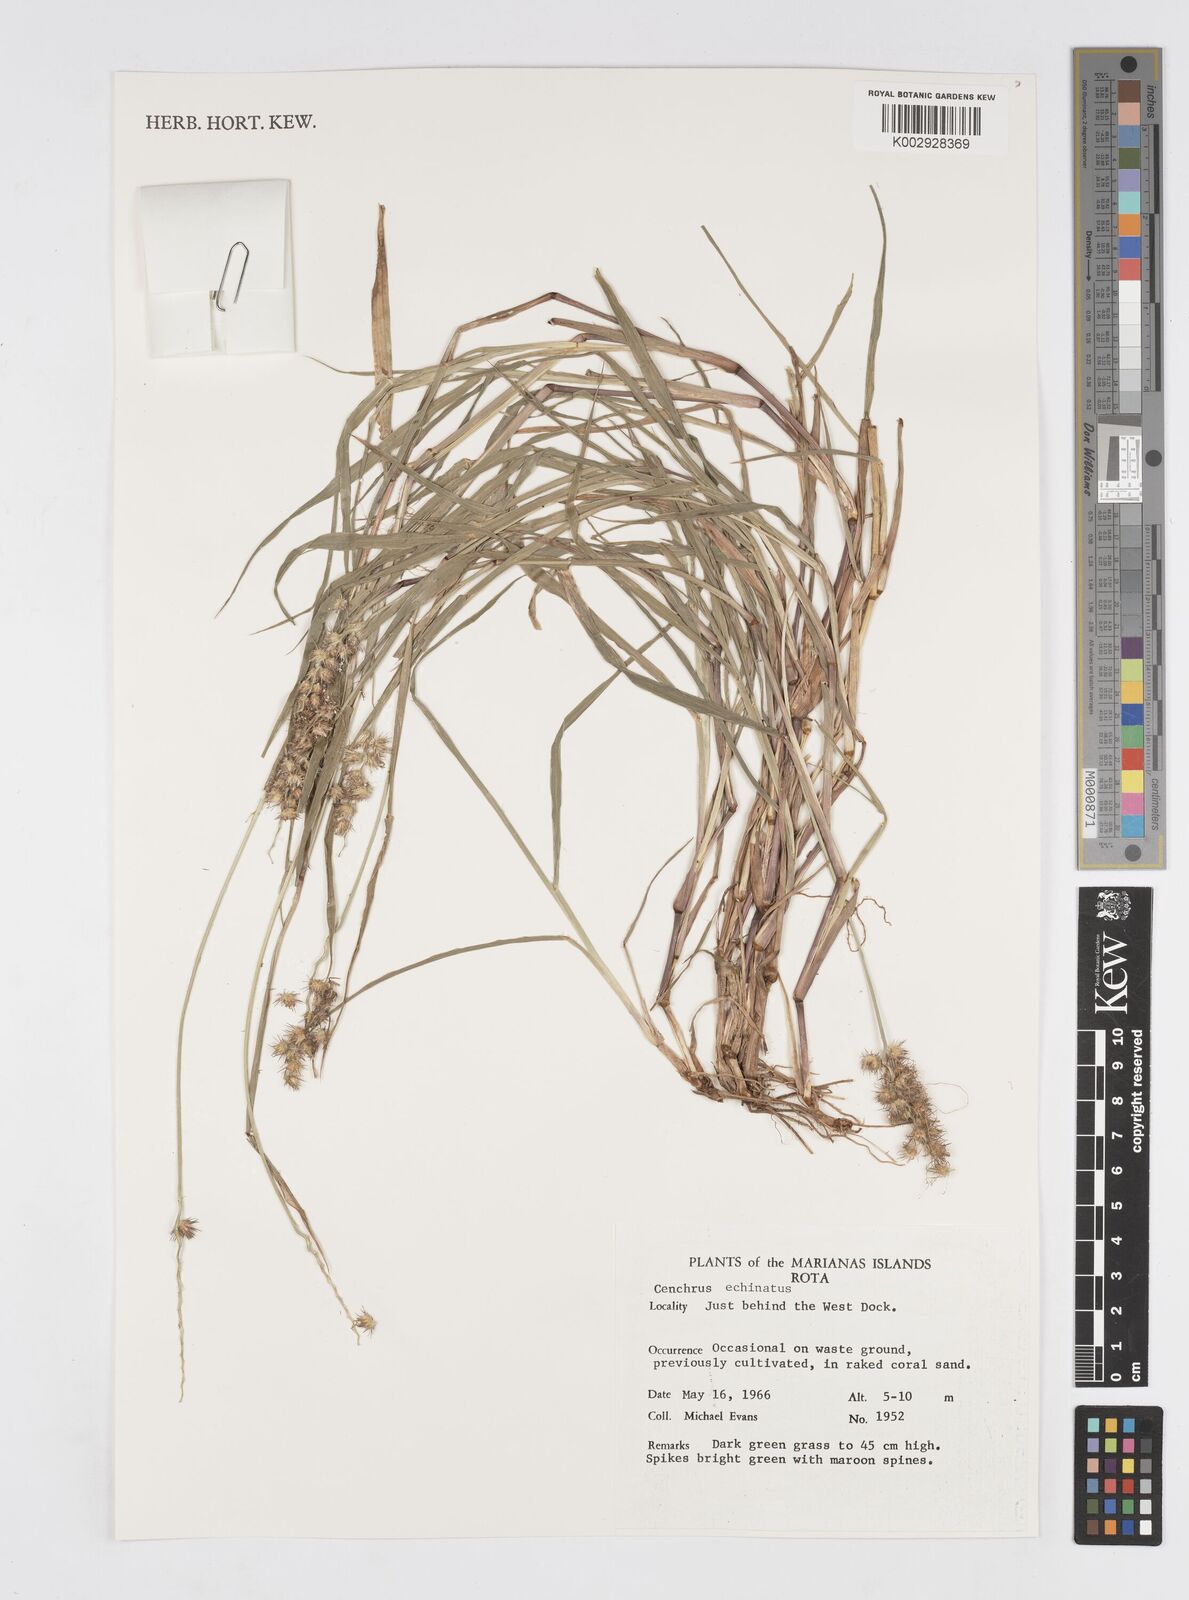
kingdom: Plantae
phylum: Tracheophyta
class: Liliopsida
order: Poales
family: Poaceae
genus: Cenchrus
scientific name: Cenchrus echinatus
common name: Southern sandbur
